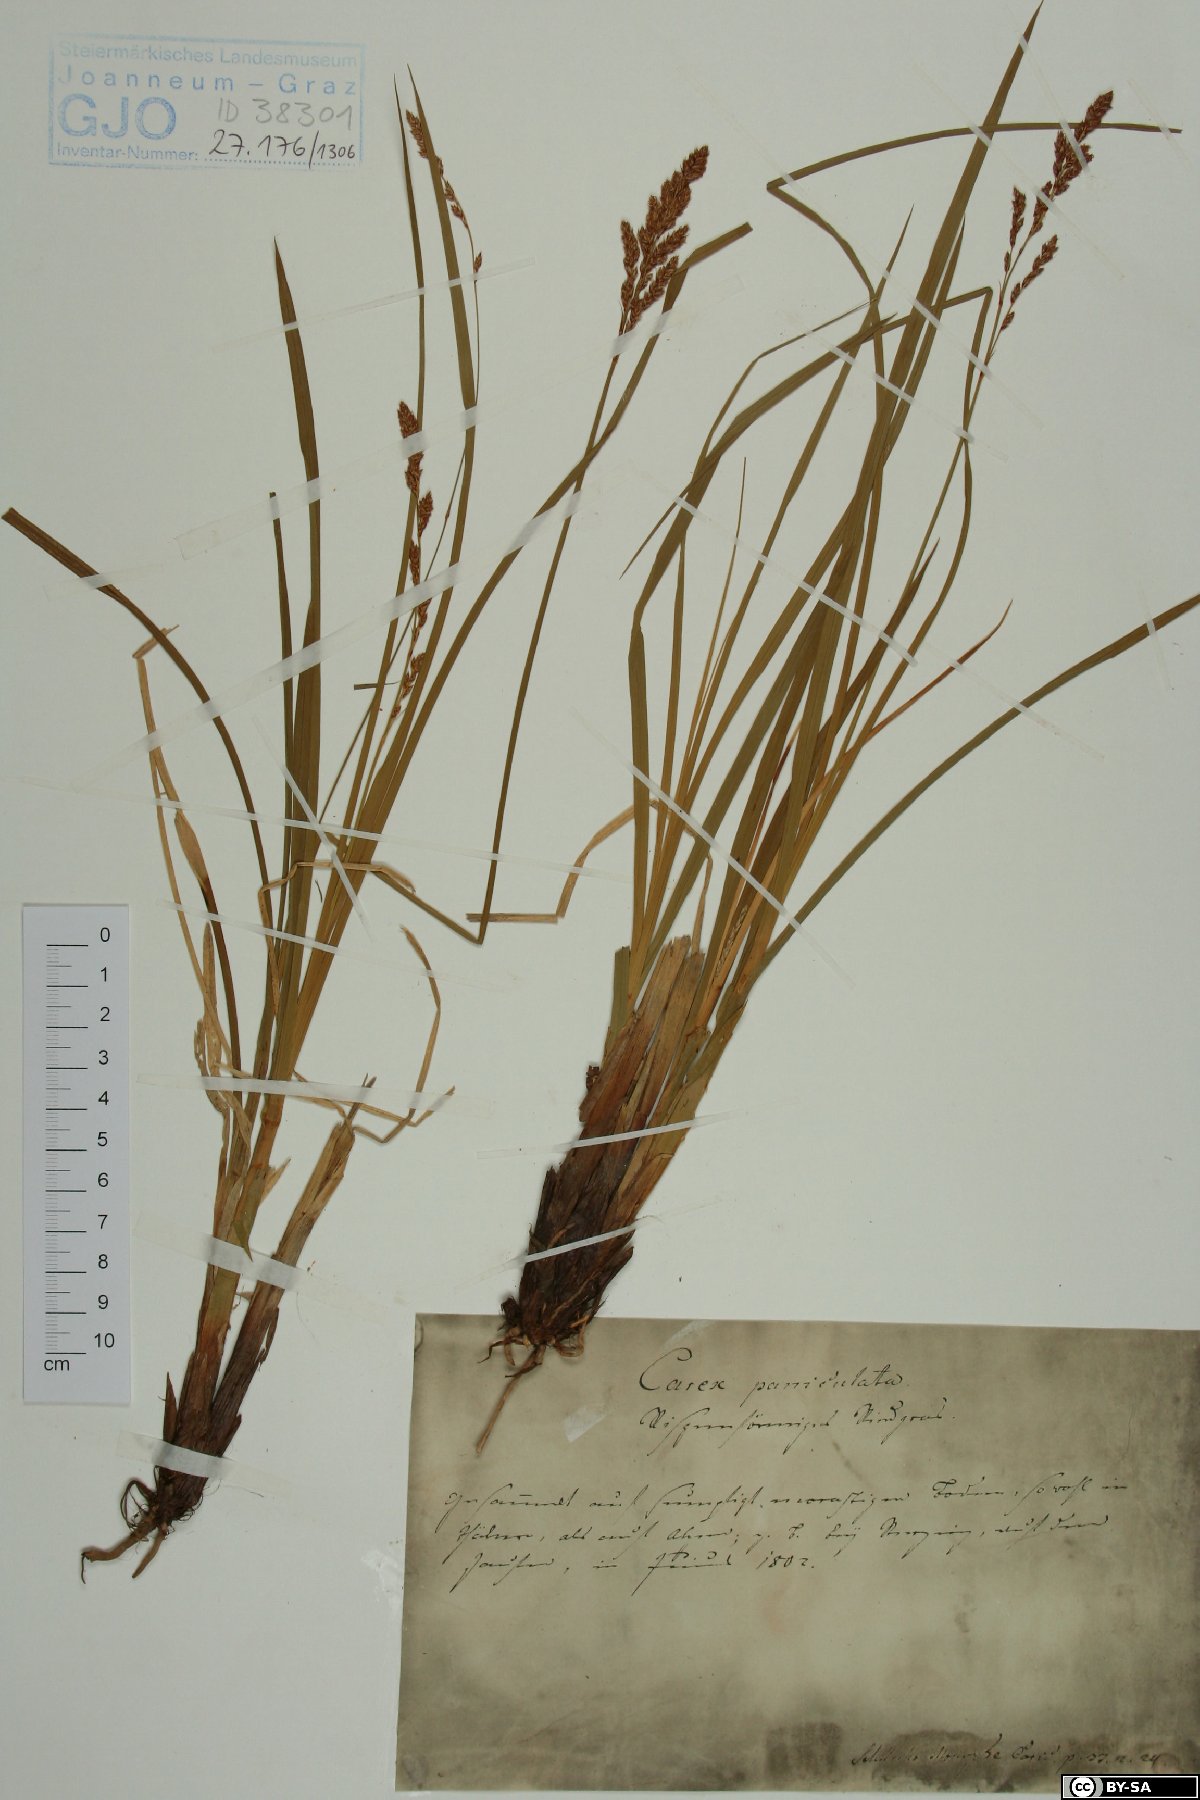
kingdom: Plantae
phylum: Tracheophyta
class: Liliopsida
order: Poales
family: Cyperaceae
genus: Carex
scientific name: Carex paniculata
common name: Greater tussock-sedge
